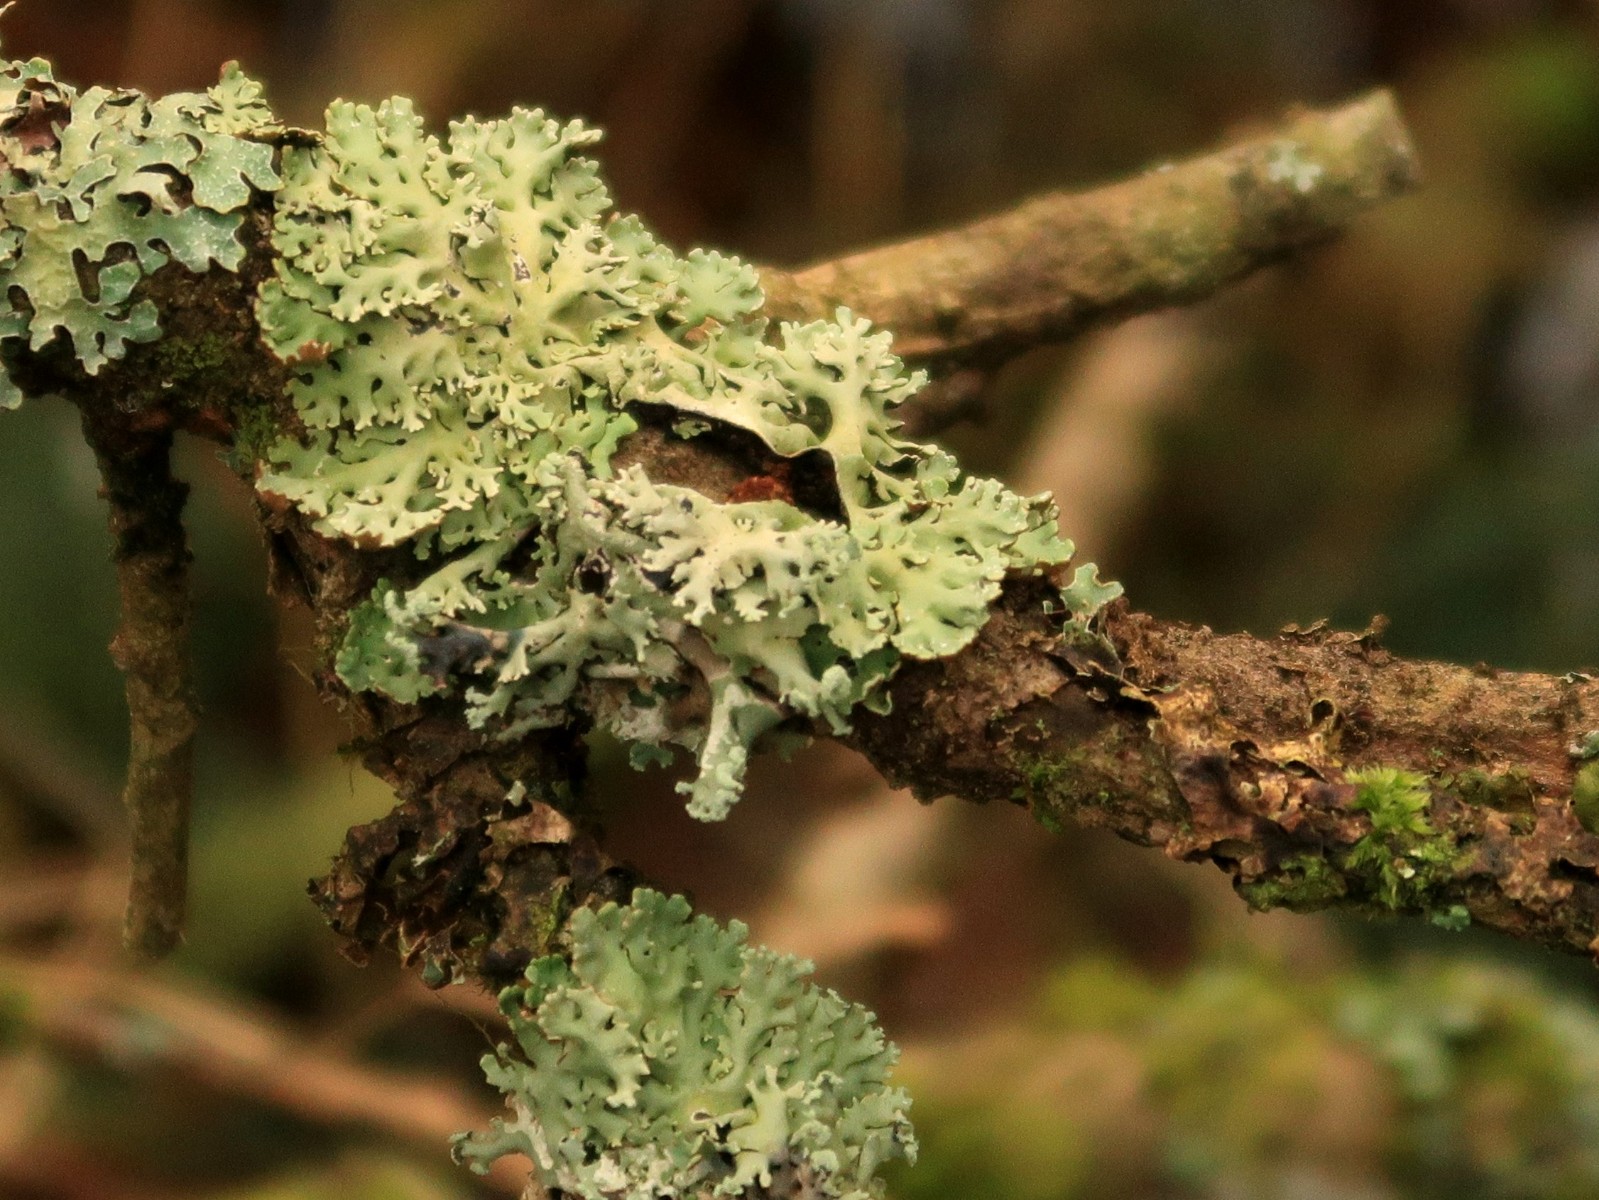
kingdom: Fungi
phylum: Ascomycota
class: Lecanoromycetes
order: Lecanorales
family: Parmeliaceae
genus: Hypogymnia
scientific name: Hypogymnia physodes
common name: almindelig kvistlav
